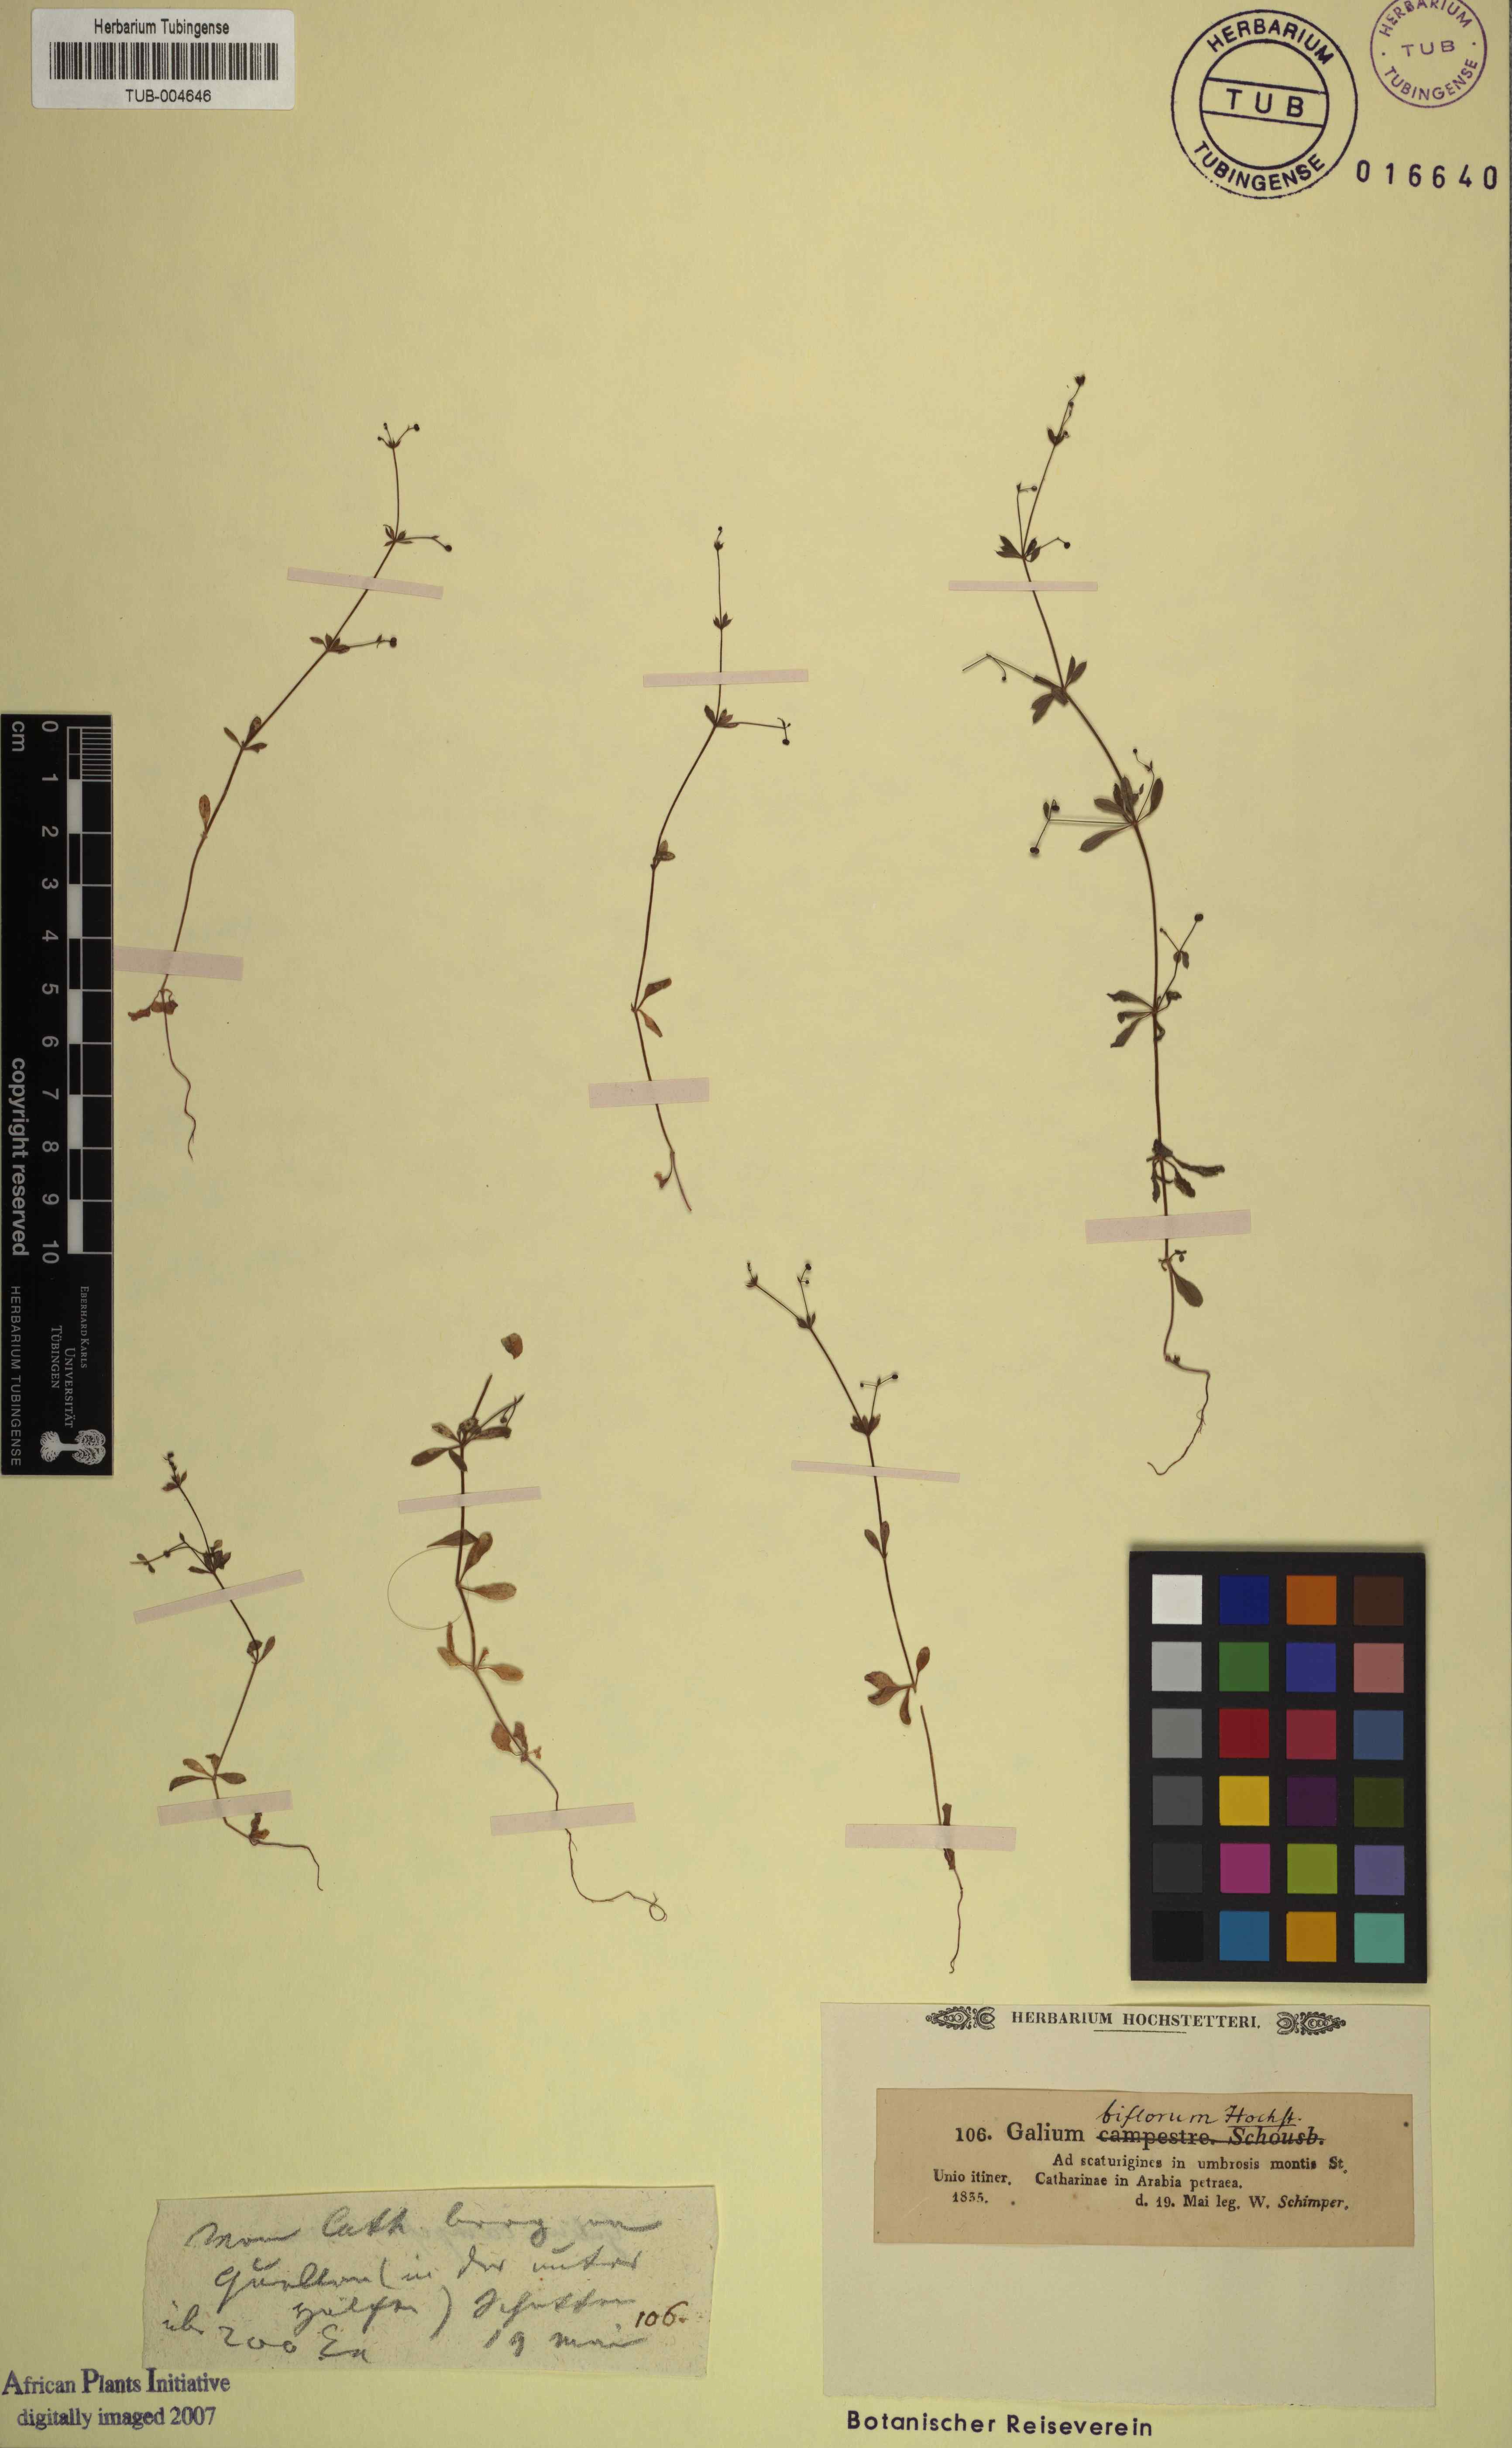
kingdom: Plantae
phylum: Tracheophyta
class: Magnoliopsida
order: Gentianales
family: Rubiaceae
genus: Galium
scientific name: Galium spurium
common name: False cleavers
